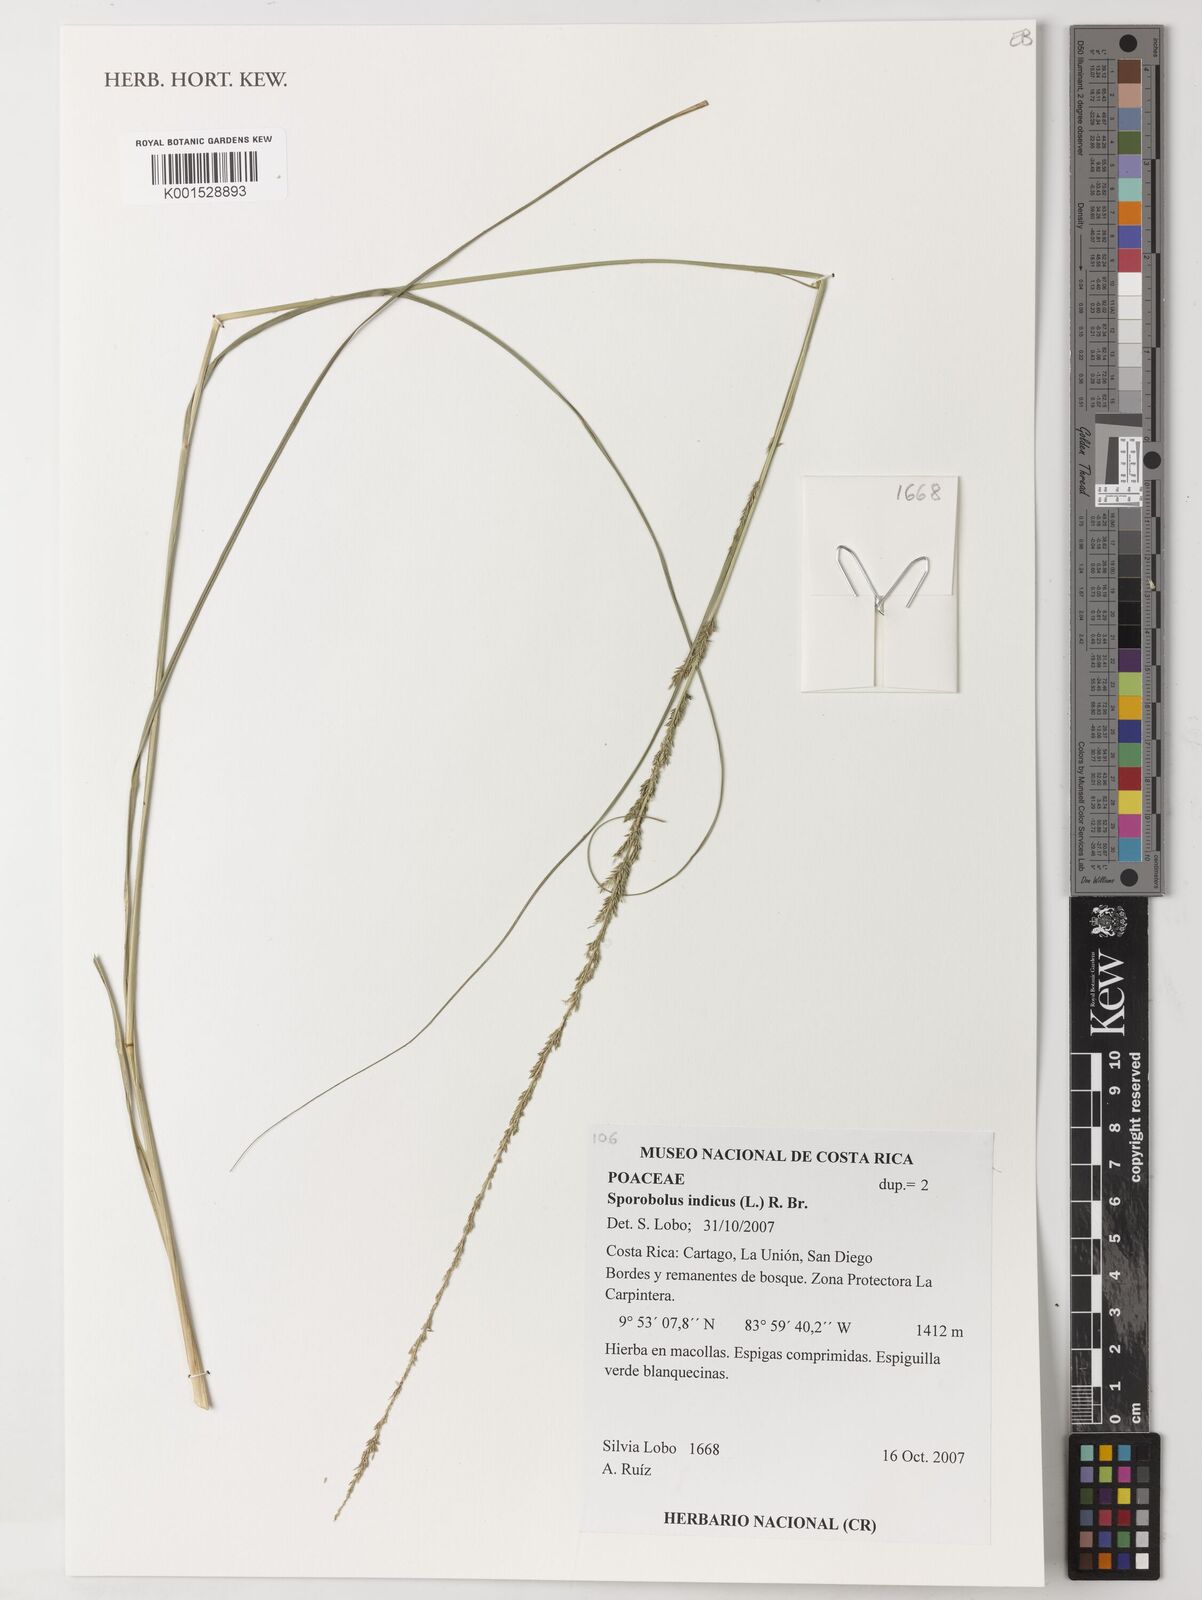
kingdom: Plantae
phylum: Tracheophyta
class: Liliopsida
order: Poales
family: Poaceae
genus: Sporobolus
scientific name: Sporobolus indicus
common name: Smut grass
